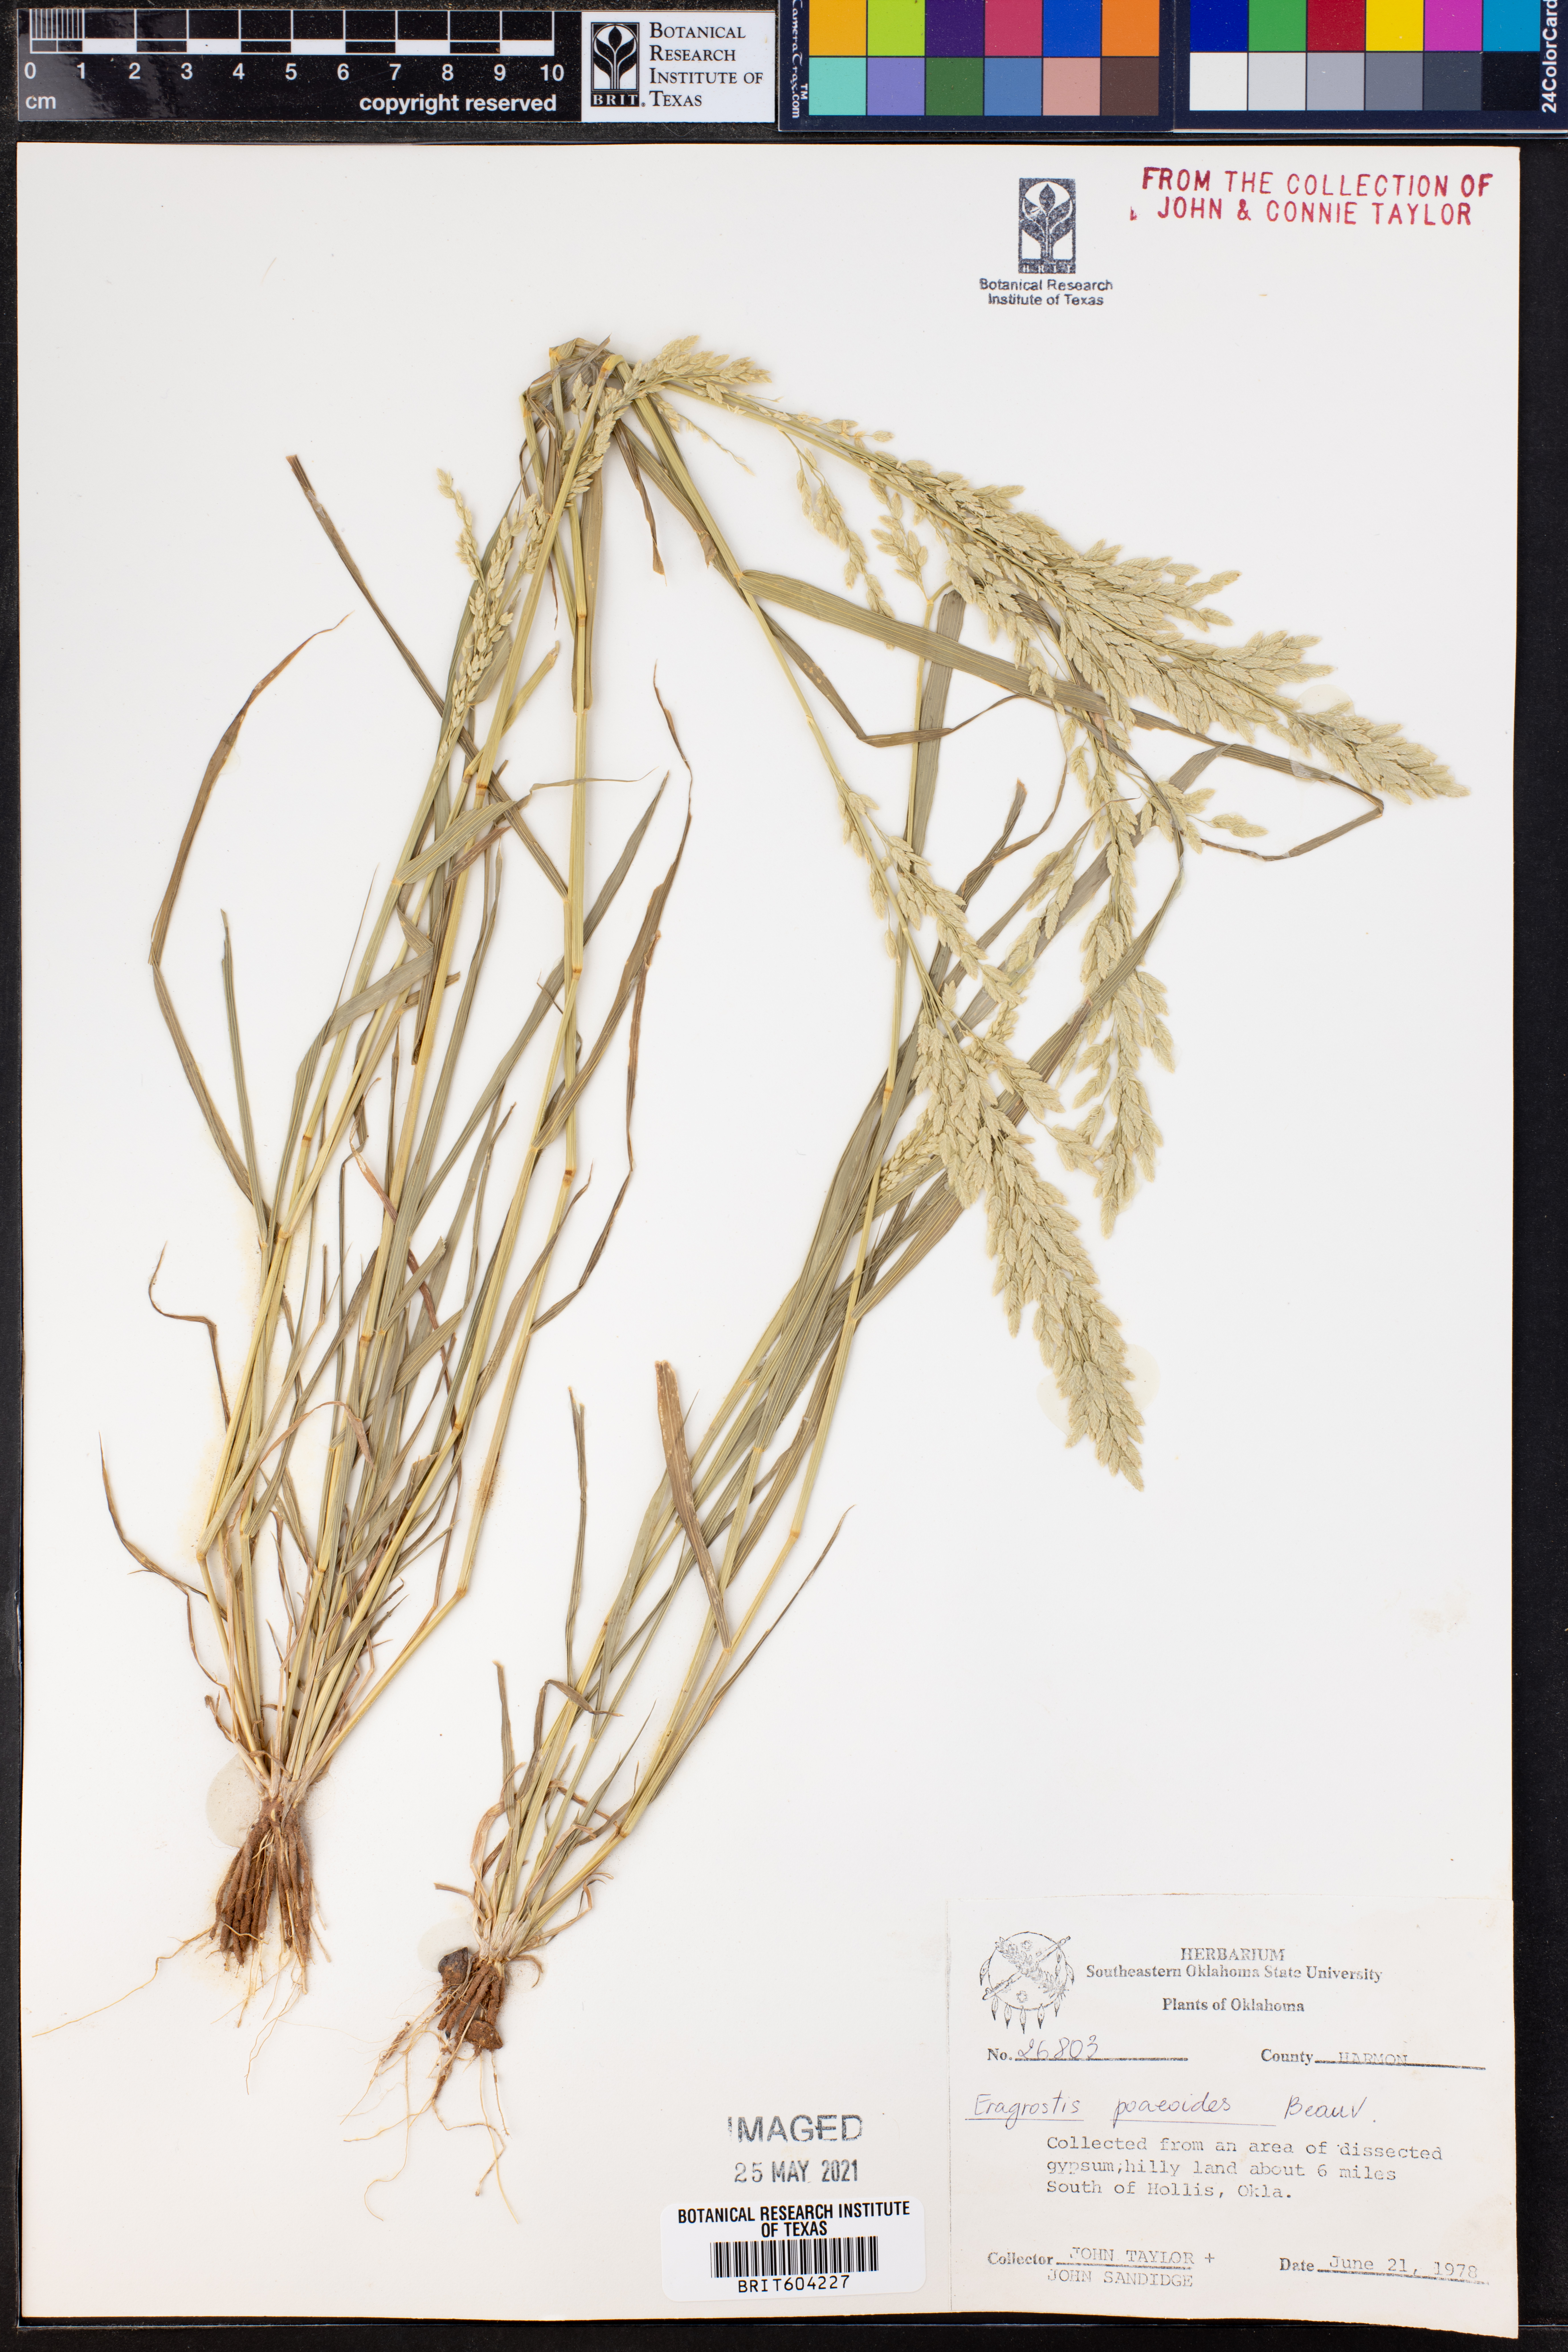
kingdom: Plantae
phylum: Tracheophyta
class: Liliopsida
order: Poales
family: Poaceae
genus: Eragrostis
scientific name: Eragrostis minor
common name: Small love-grass
